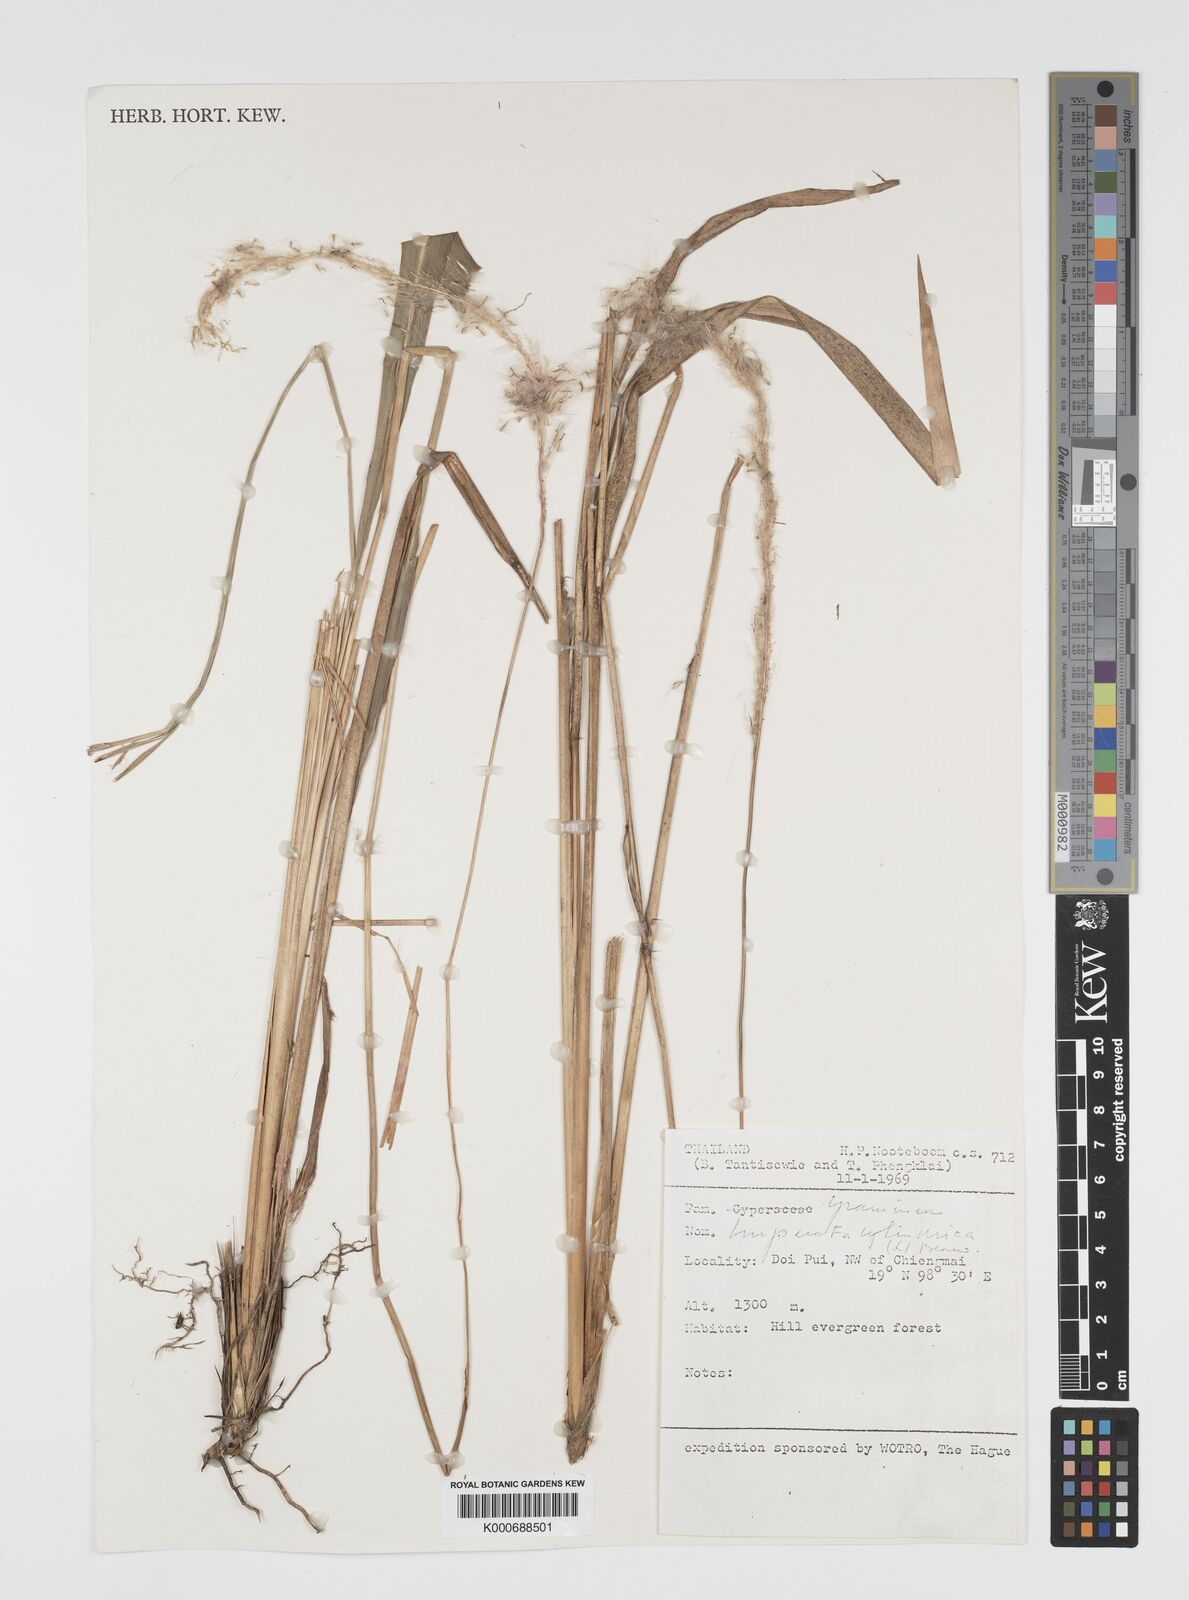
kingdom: Plantae
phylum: Tracheophyta
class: Liliopsida
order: Poales
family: Poaceae
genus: Imperata
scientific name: Imperata cylindrica
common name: Cogongrass
